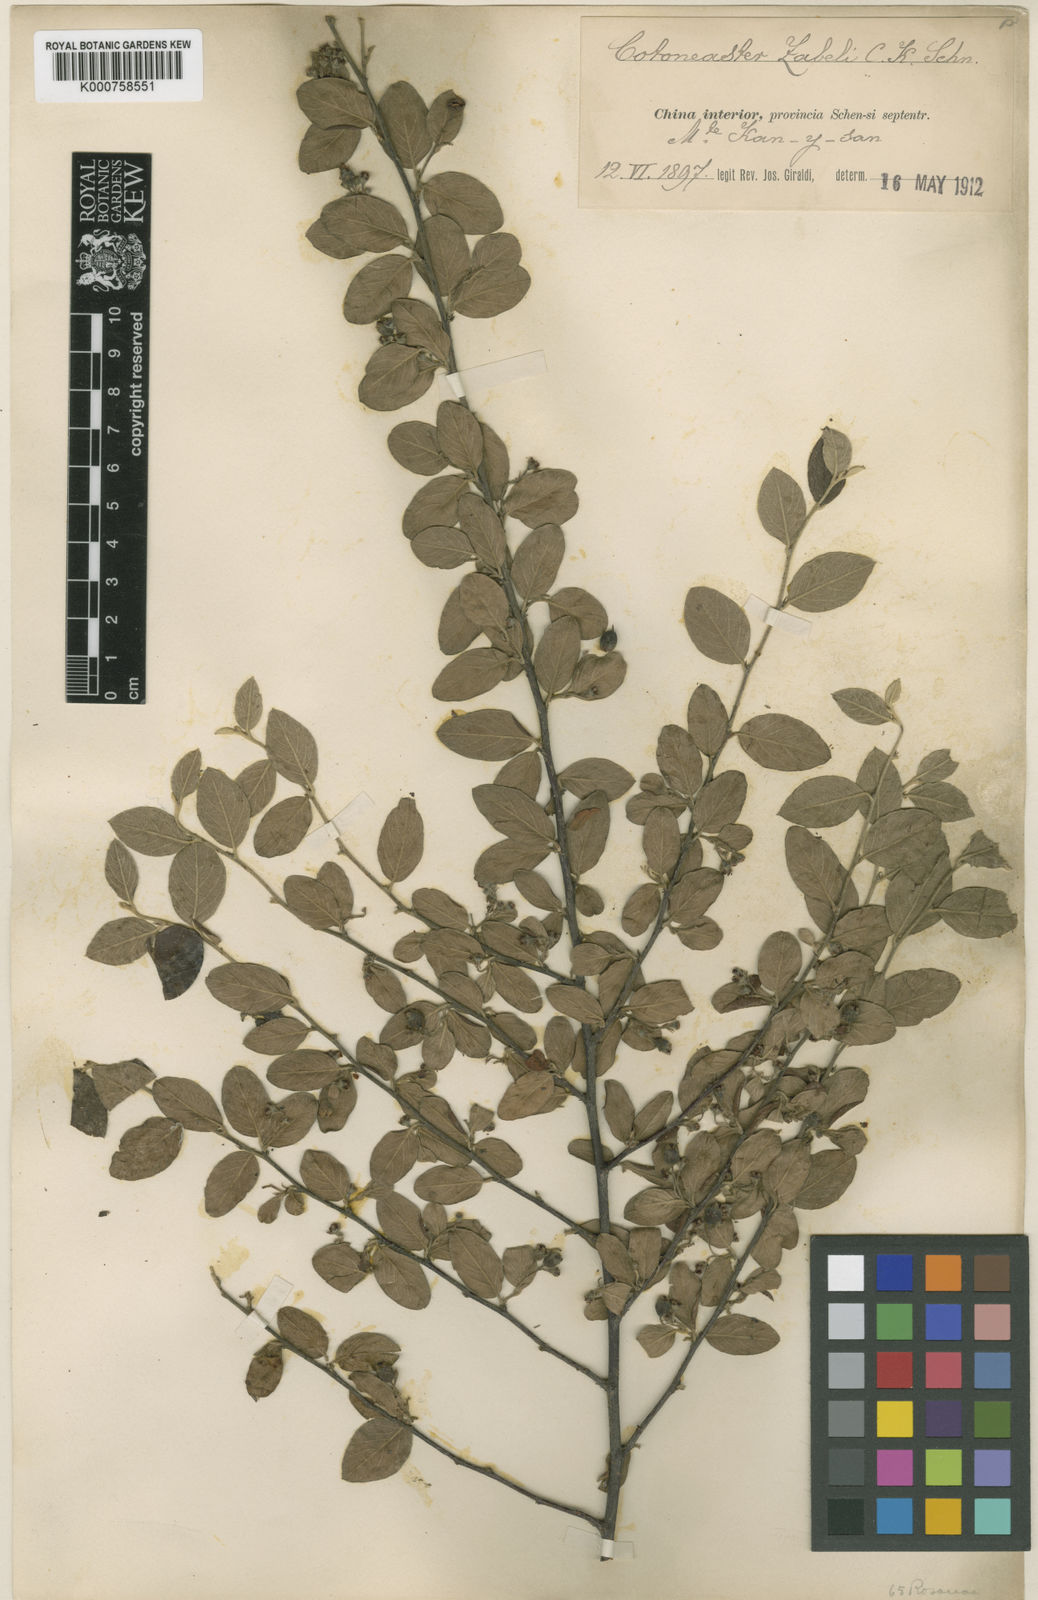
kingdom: Plantae
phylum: Tracheophyta
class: Magnoliopsida
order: Rosales
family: Rosaceae
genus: Cotoneaster
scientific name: Cotoneaster zabelii
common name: Cherryred cotoneaster
